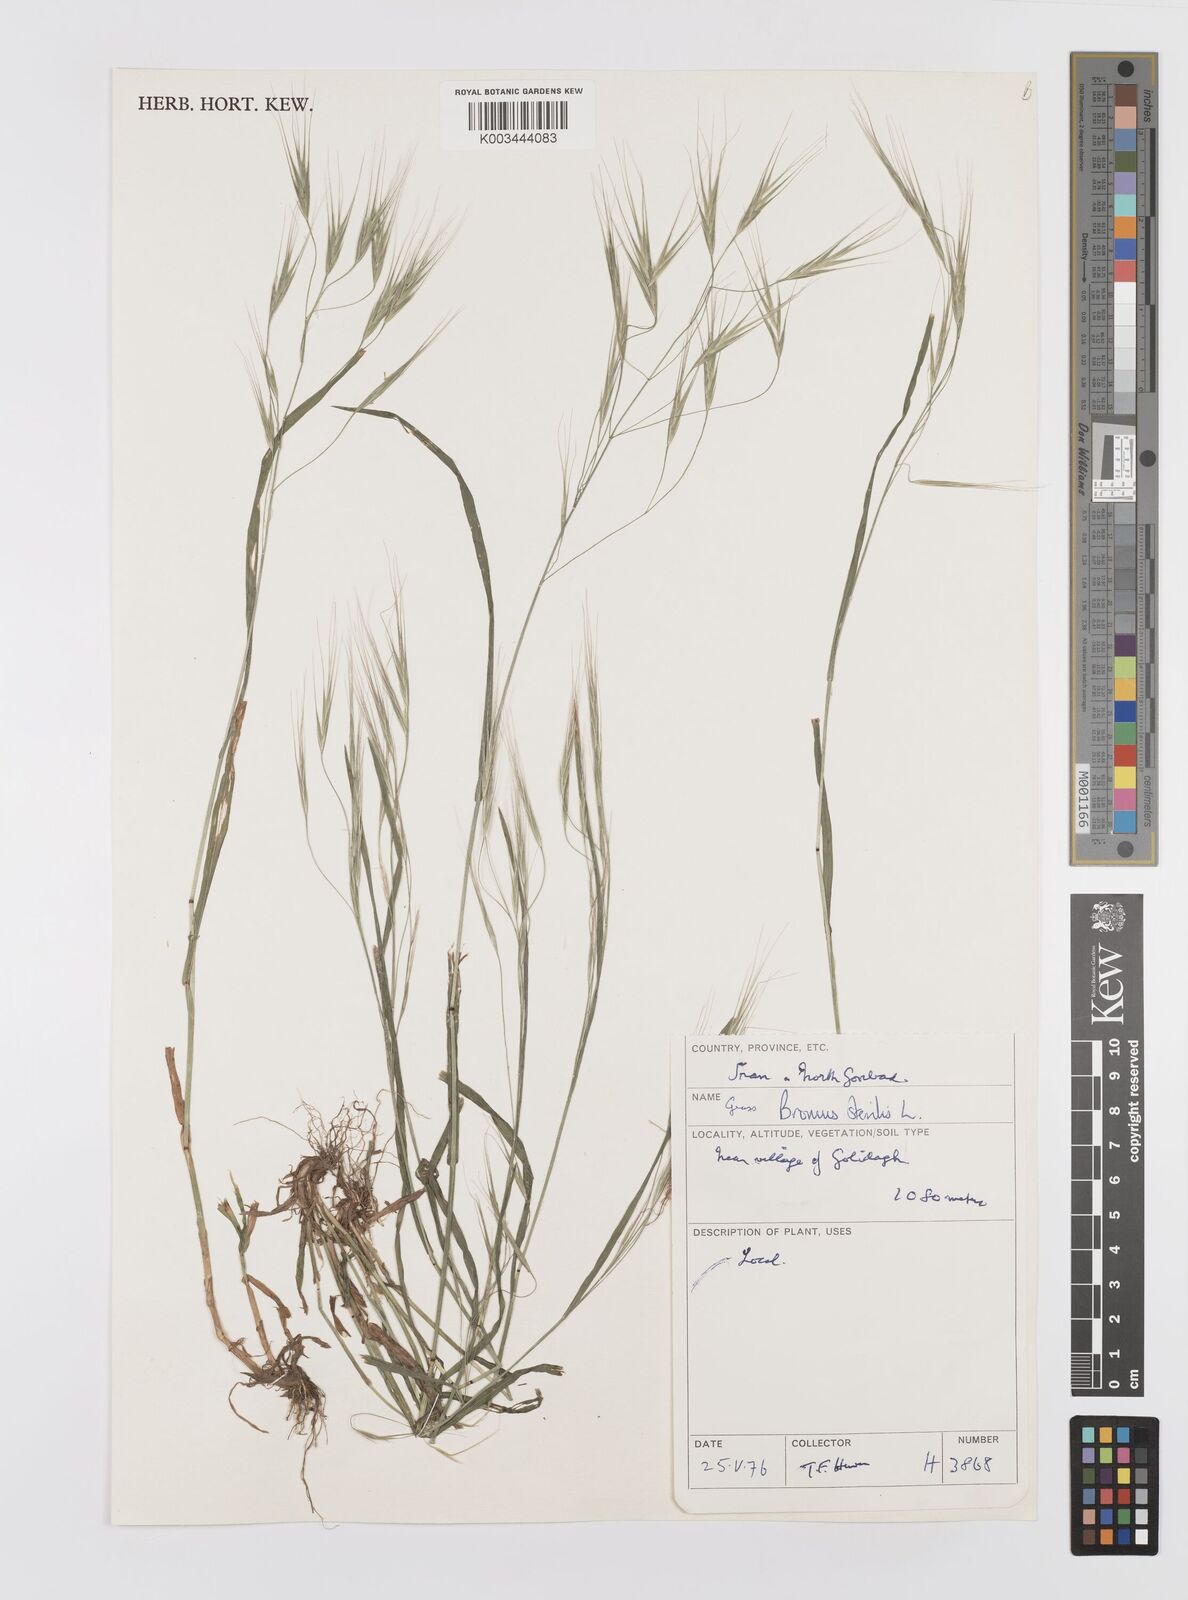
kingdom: Plantae
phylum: Tracheophyta
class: Liliopsida
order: Poales
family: Poaceae
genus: Bromus
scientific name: Bromus sterilis
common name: Poverty brome
